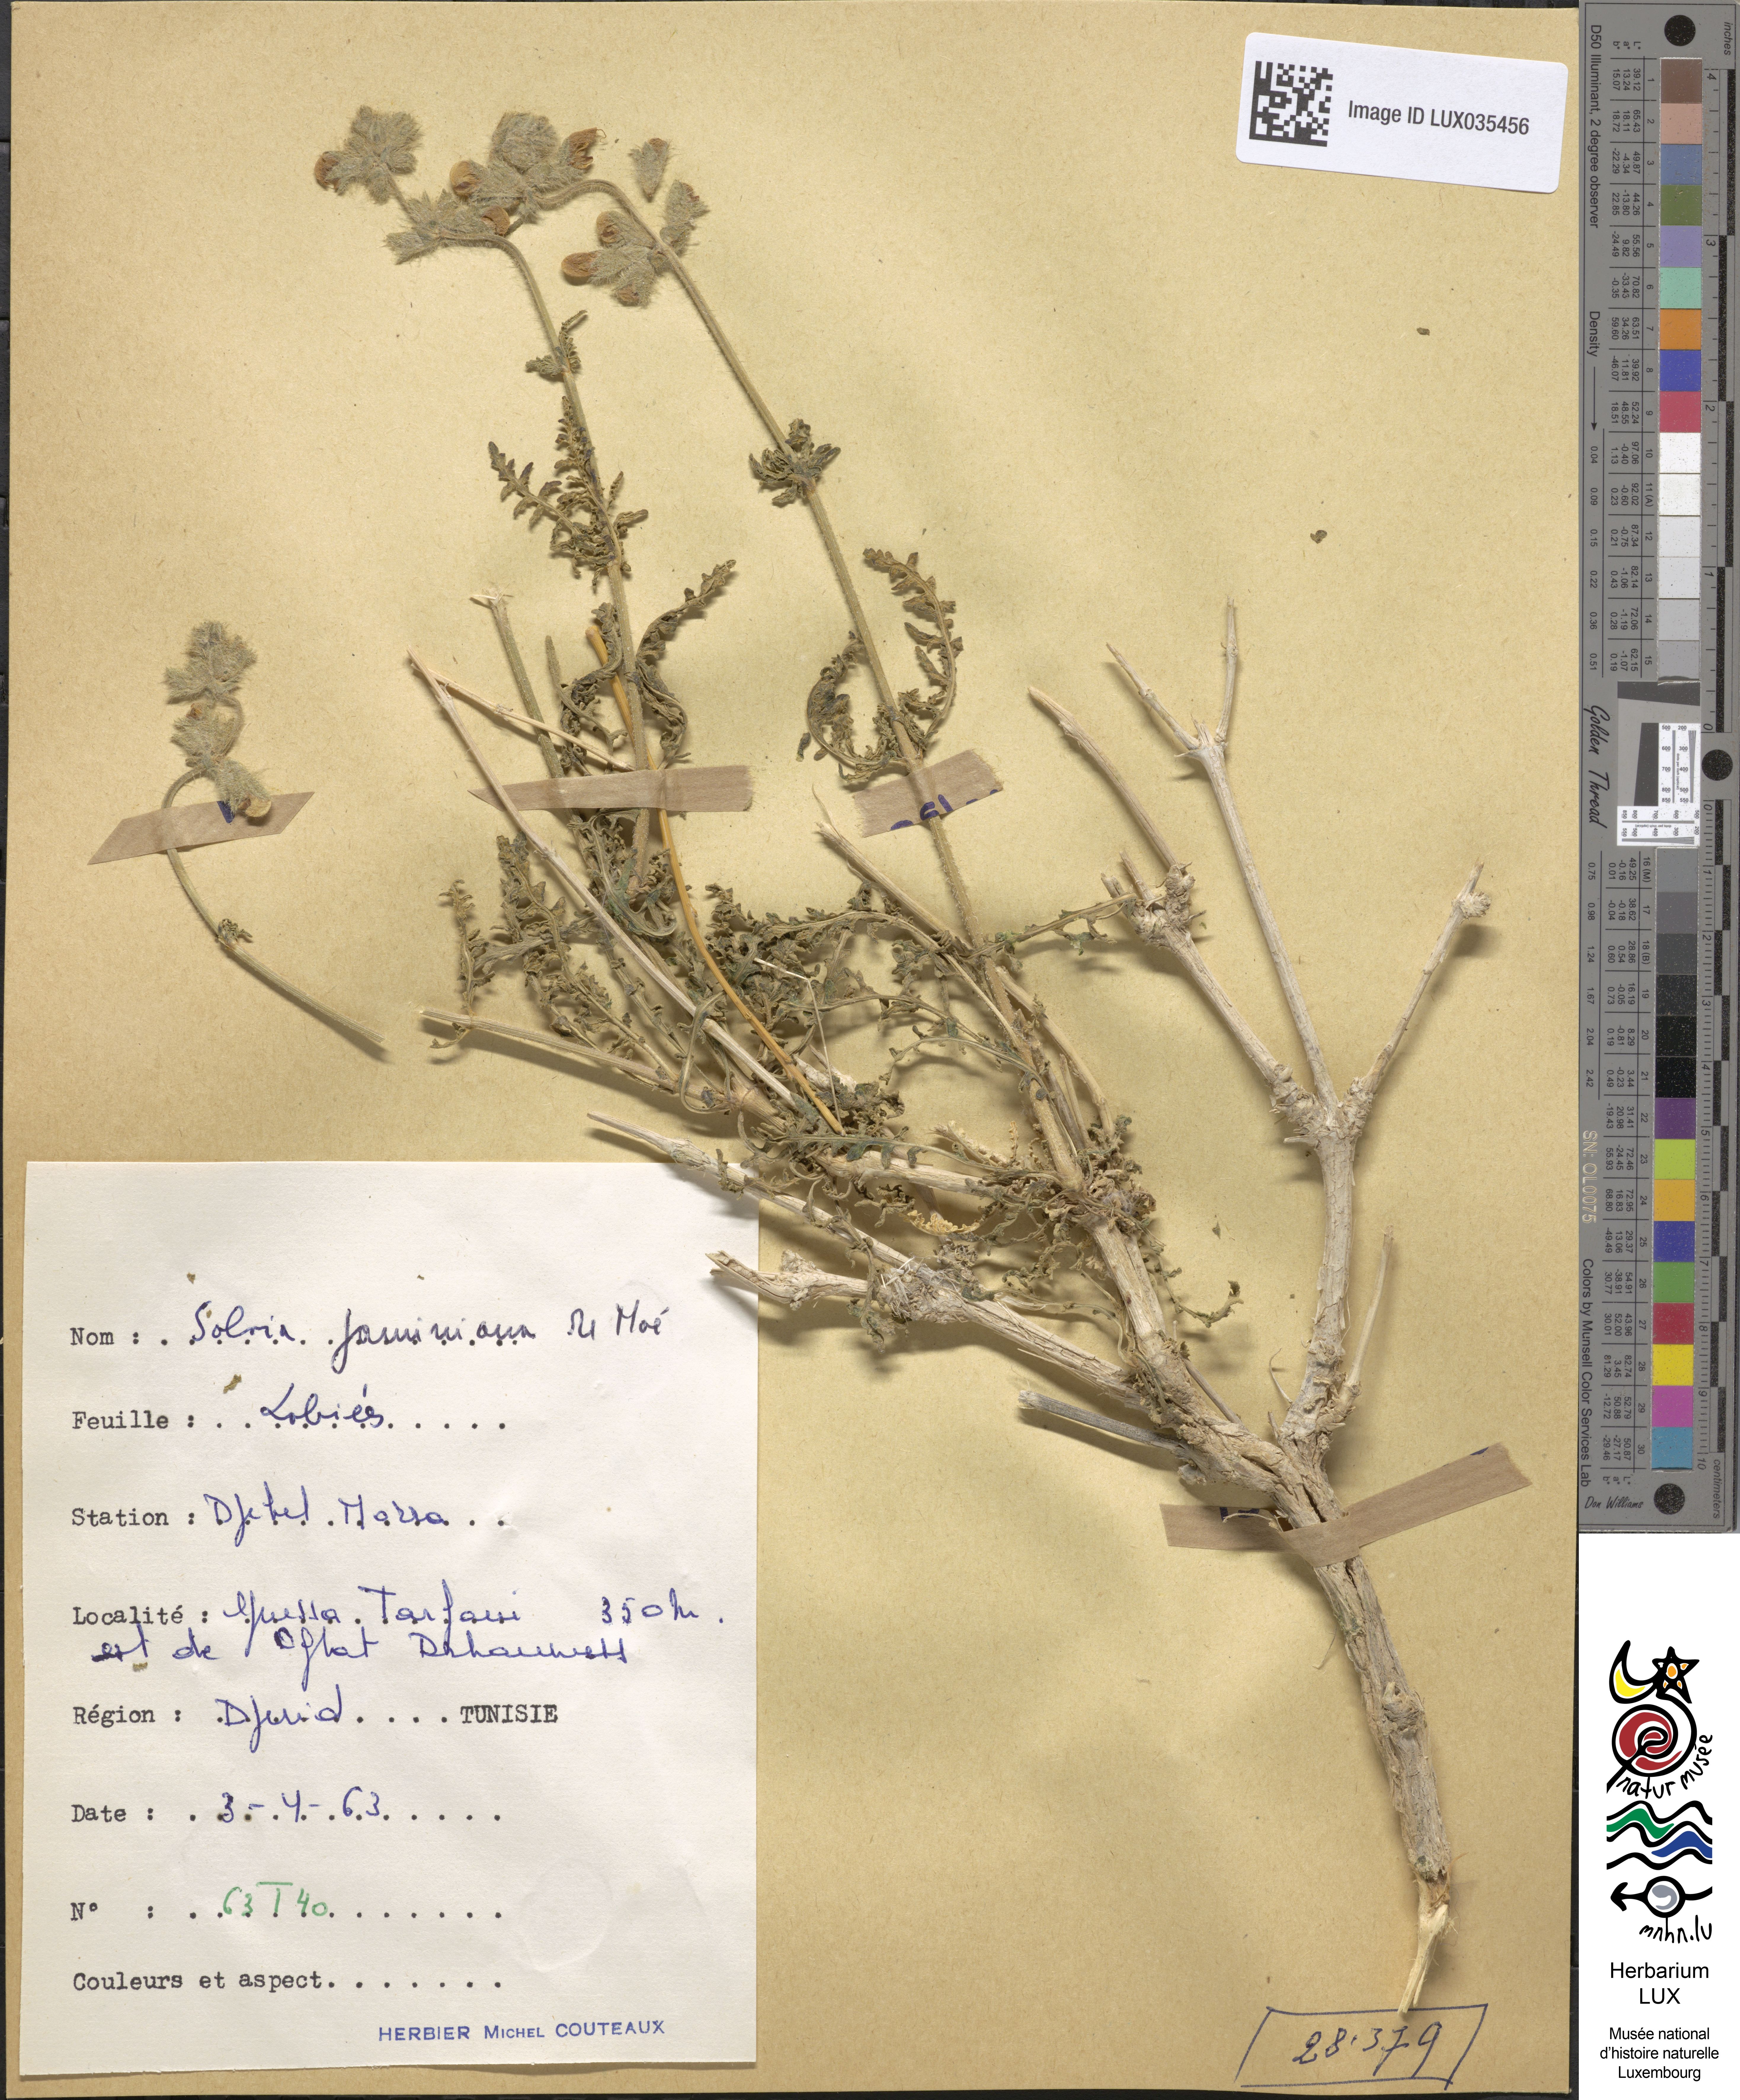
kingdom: Plantae
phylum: Tracheophyta
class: Magnoliopsida
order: Lamiales
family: Lamiaceae
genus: Salvia
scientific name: Salvia
